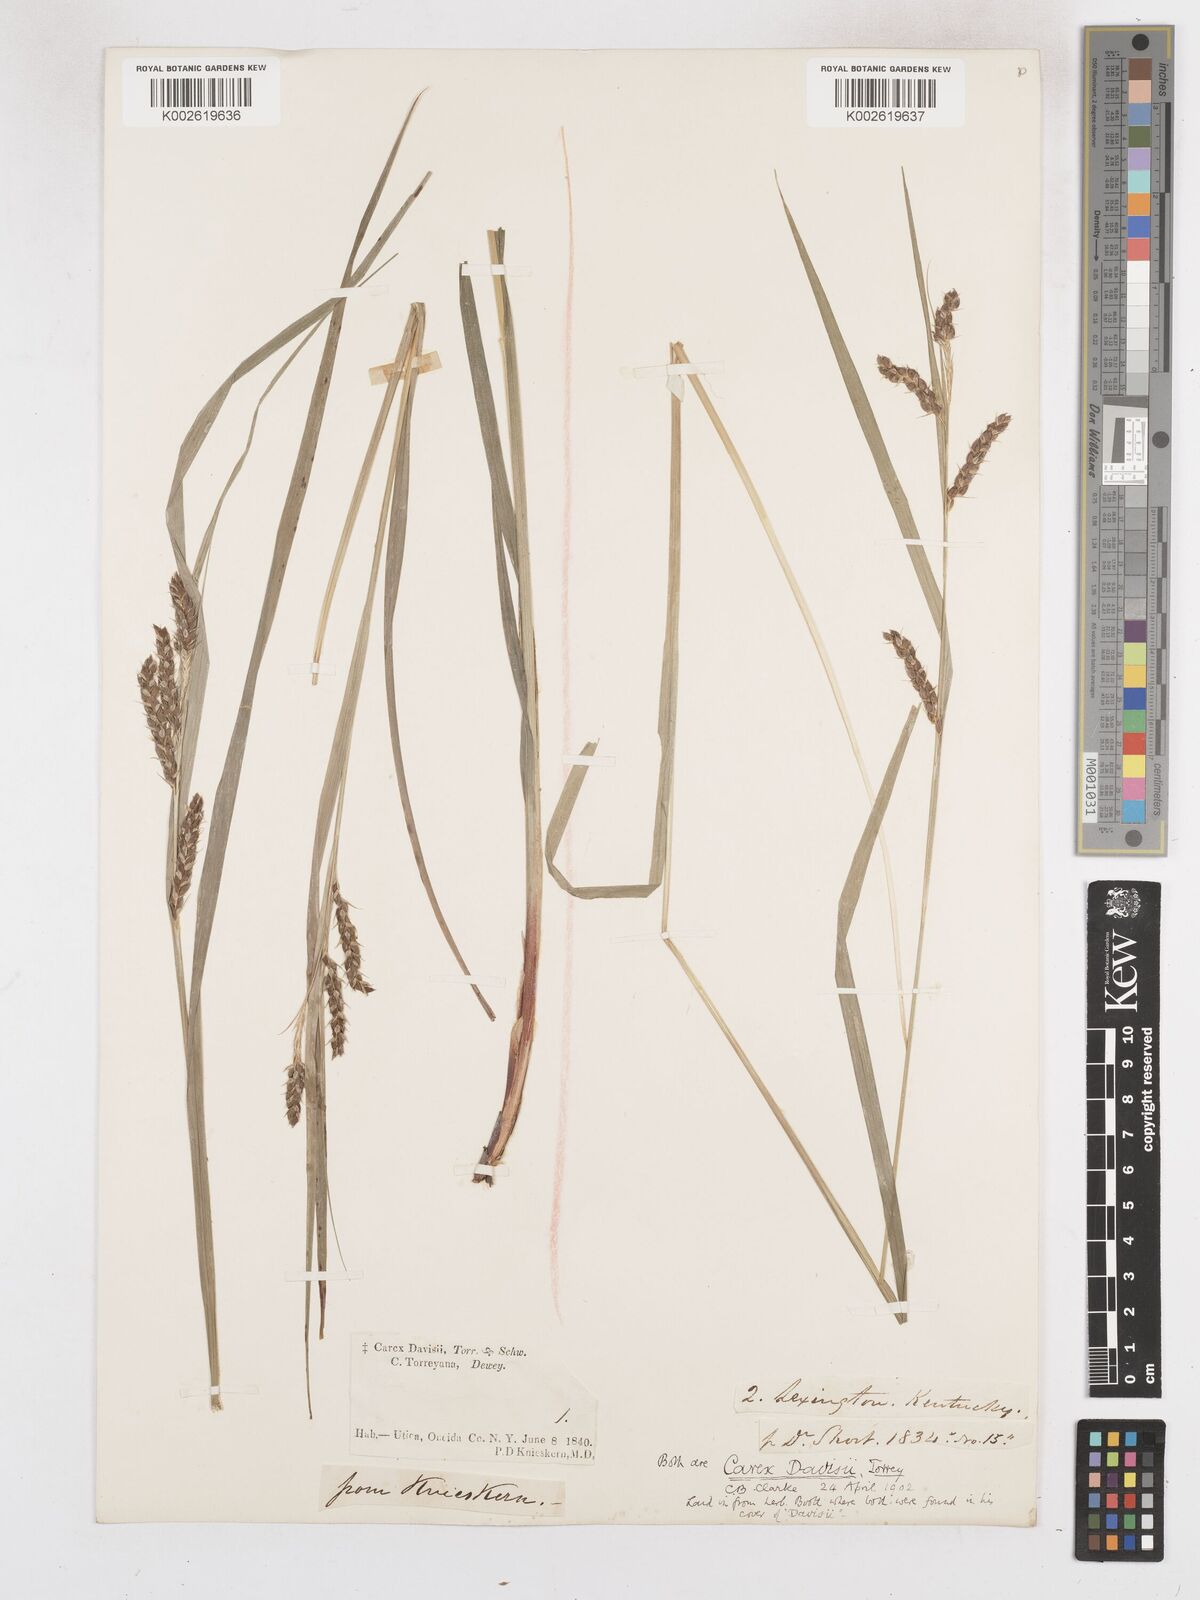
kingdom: Plantae
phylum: Tracheophyta
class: Liliopsida
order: Poales
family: Cyperaceae
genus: Carex
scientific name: Carex davisii
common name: Davis' sedge
